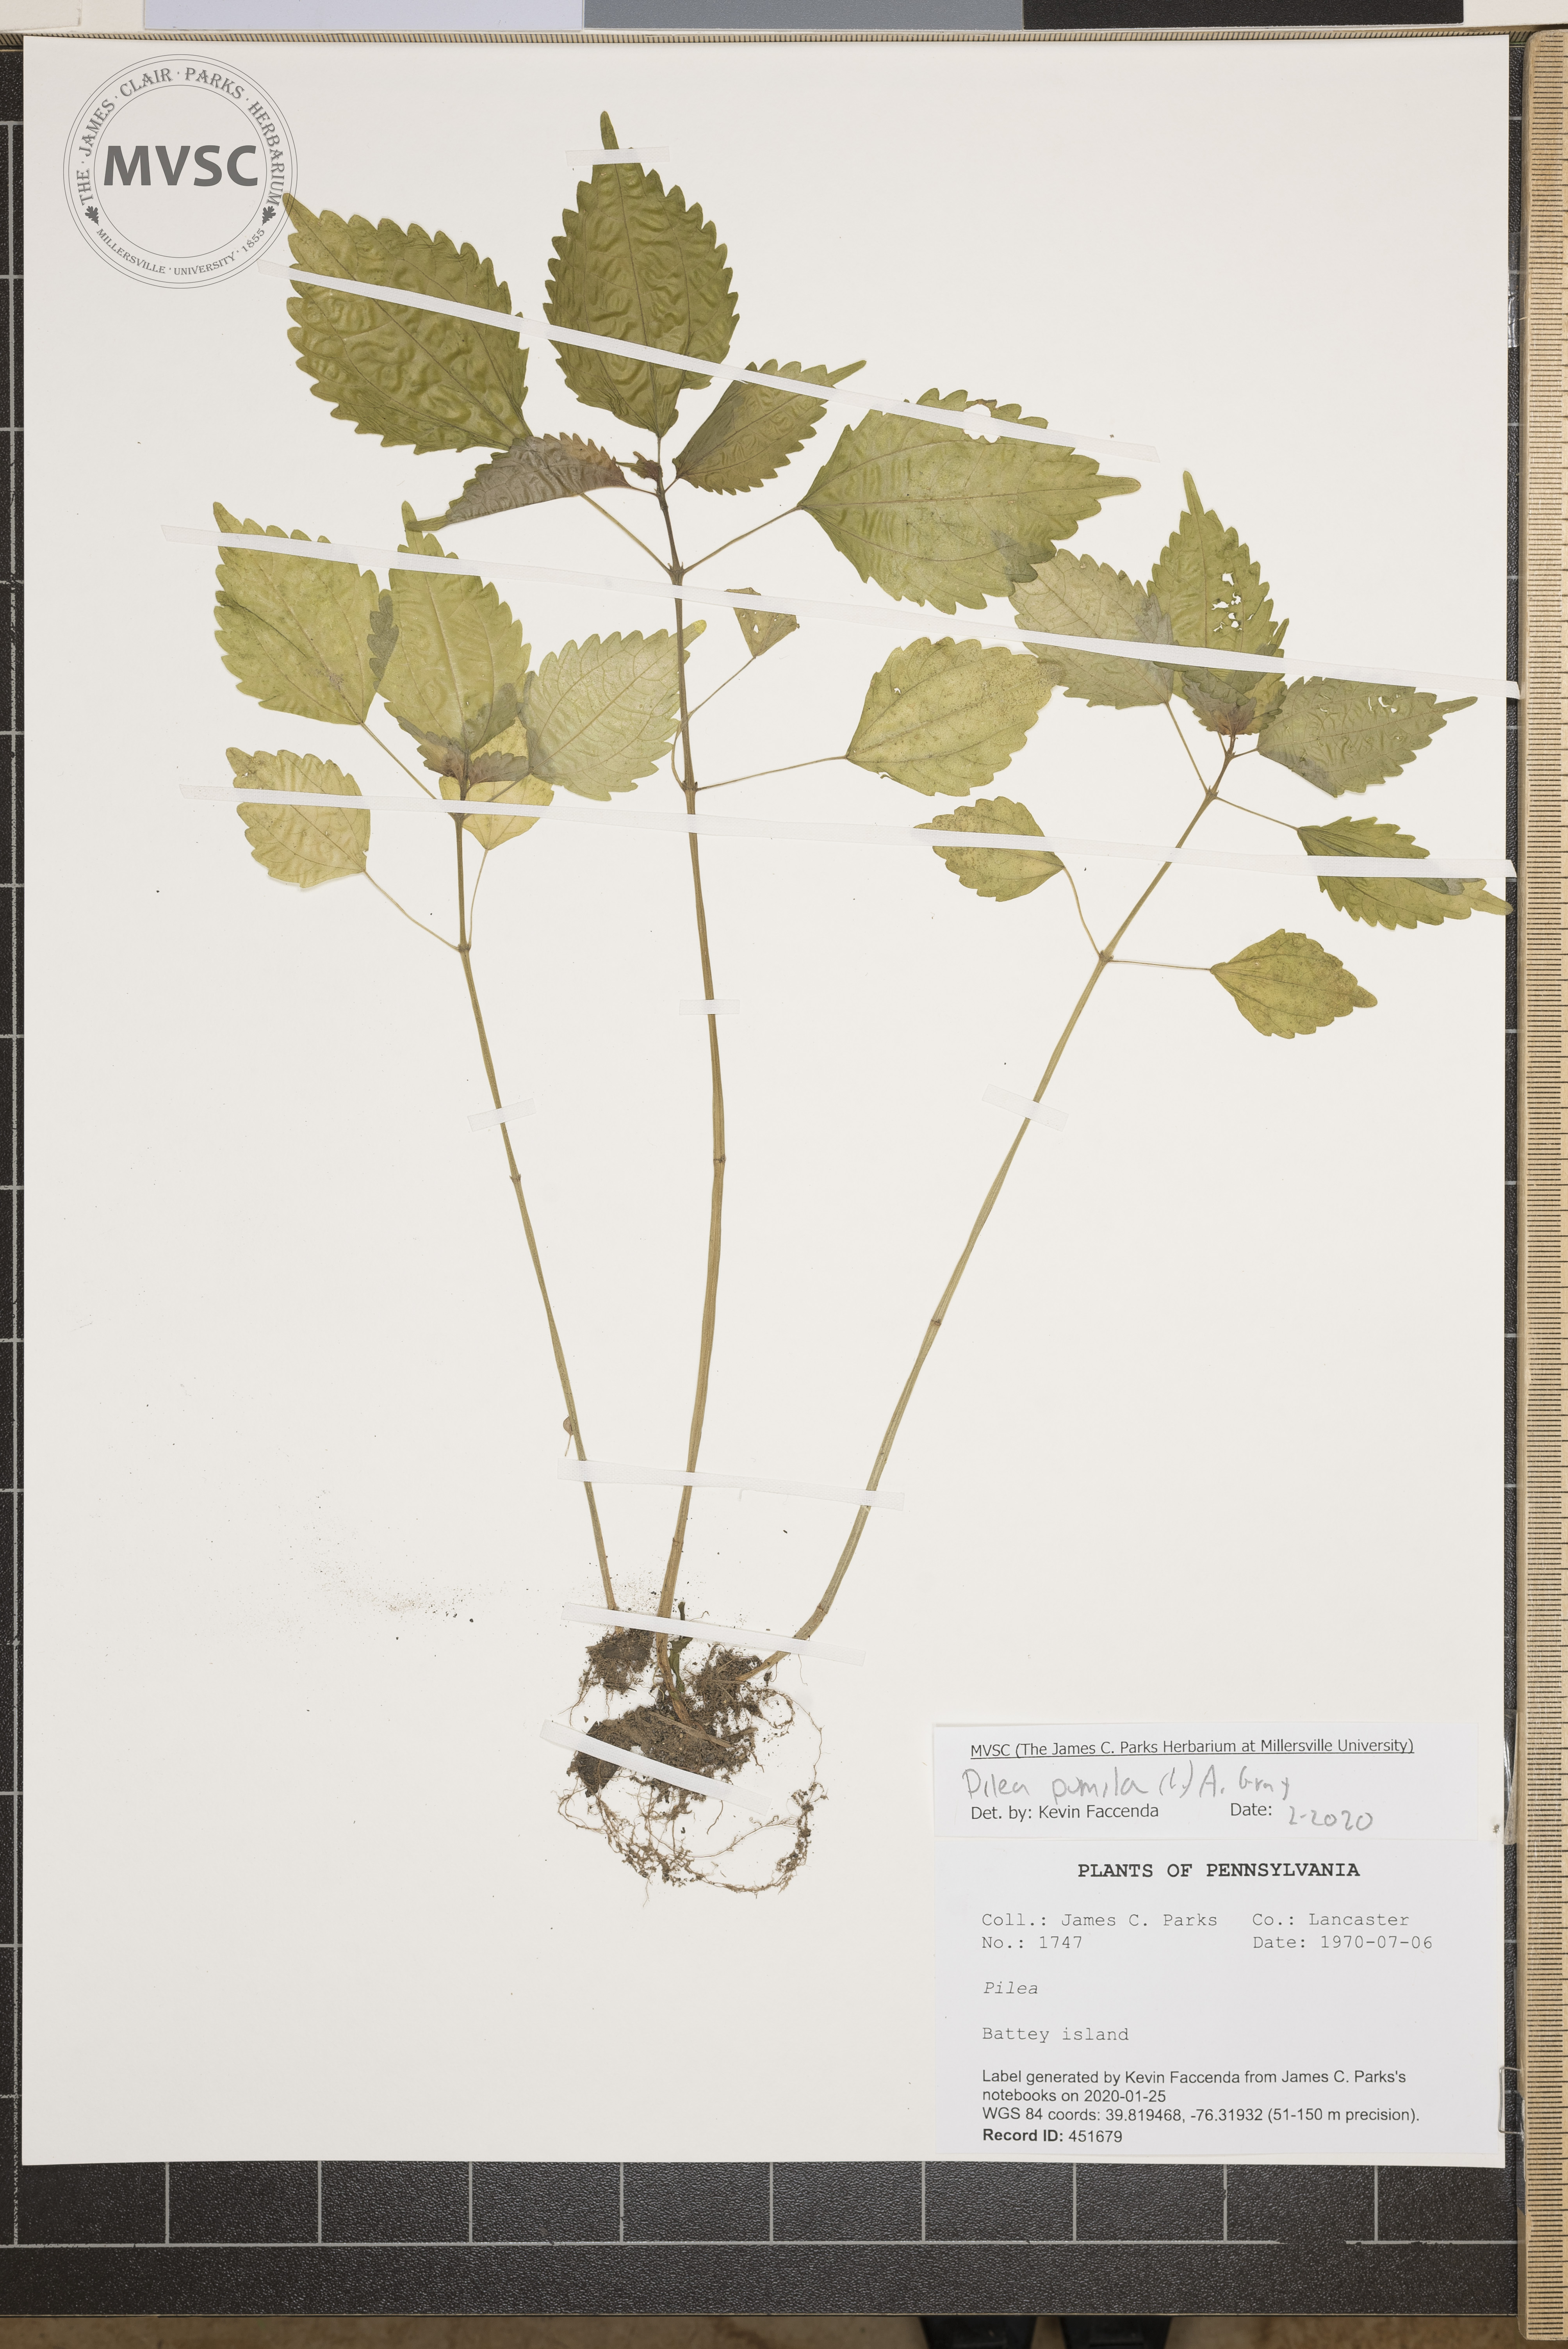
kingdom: Plantae
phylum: Tracheophyta
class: Magnoliopsida
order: Rosales
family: Urticaceae
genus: Pilea
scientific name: Pilea pumila
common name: Clearweed
